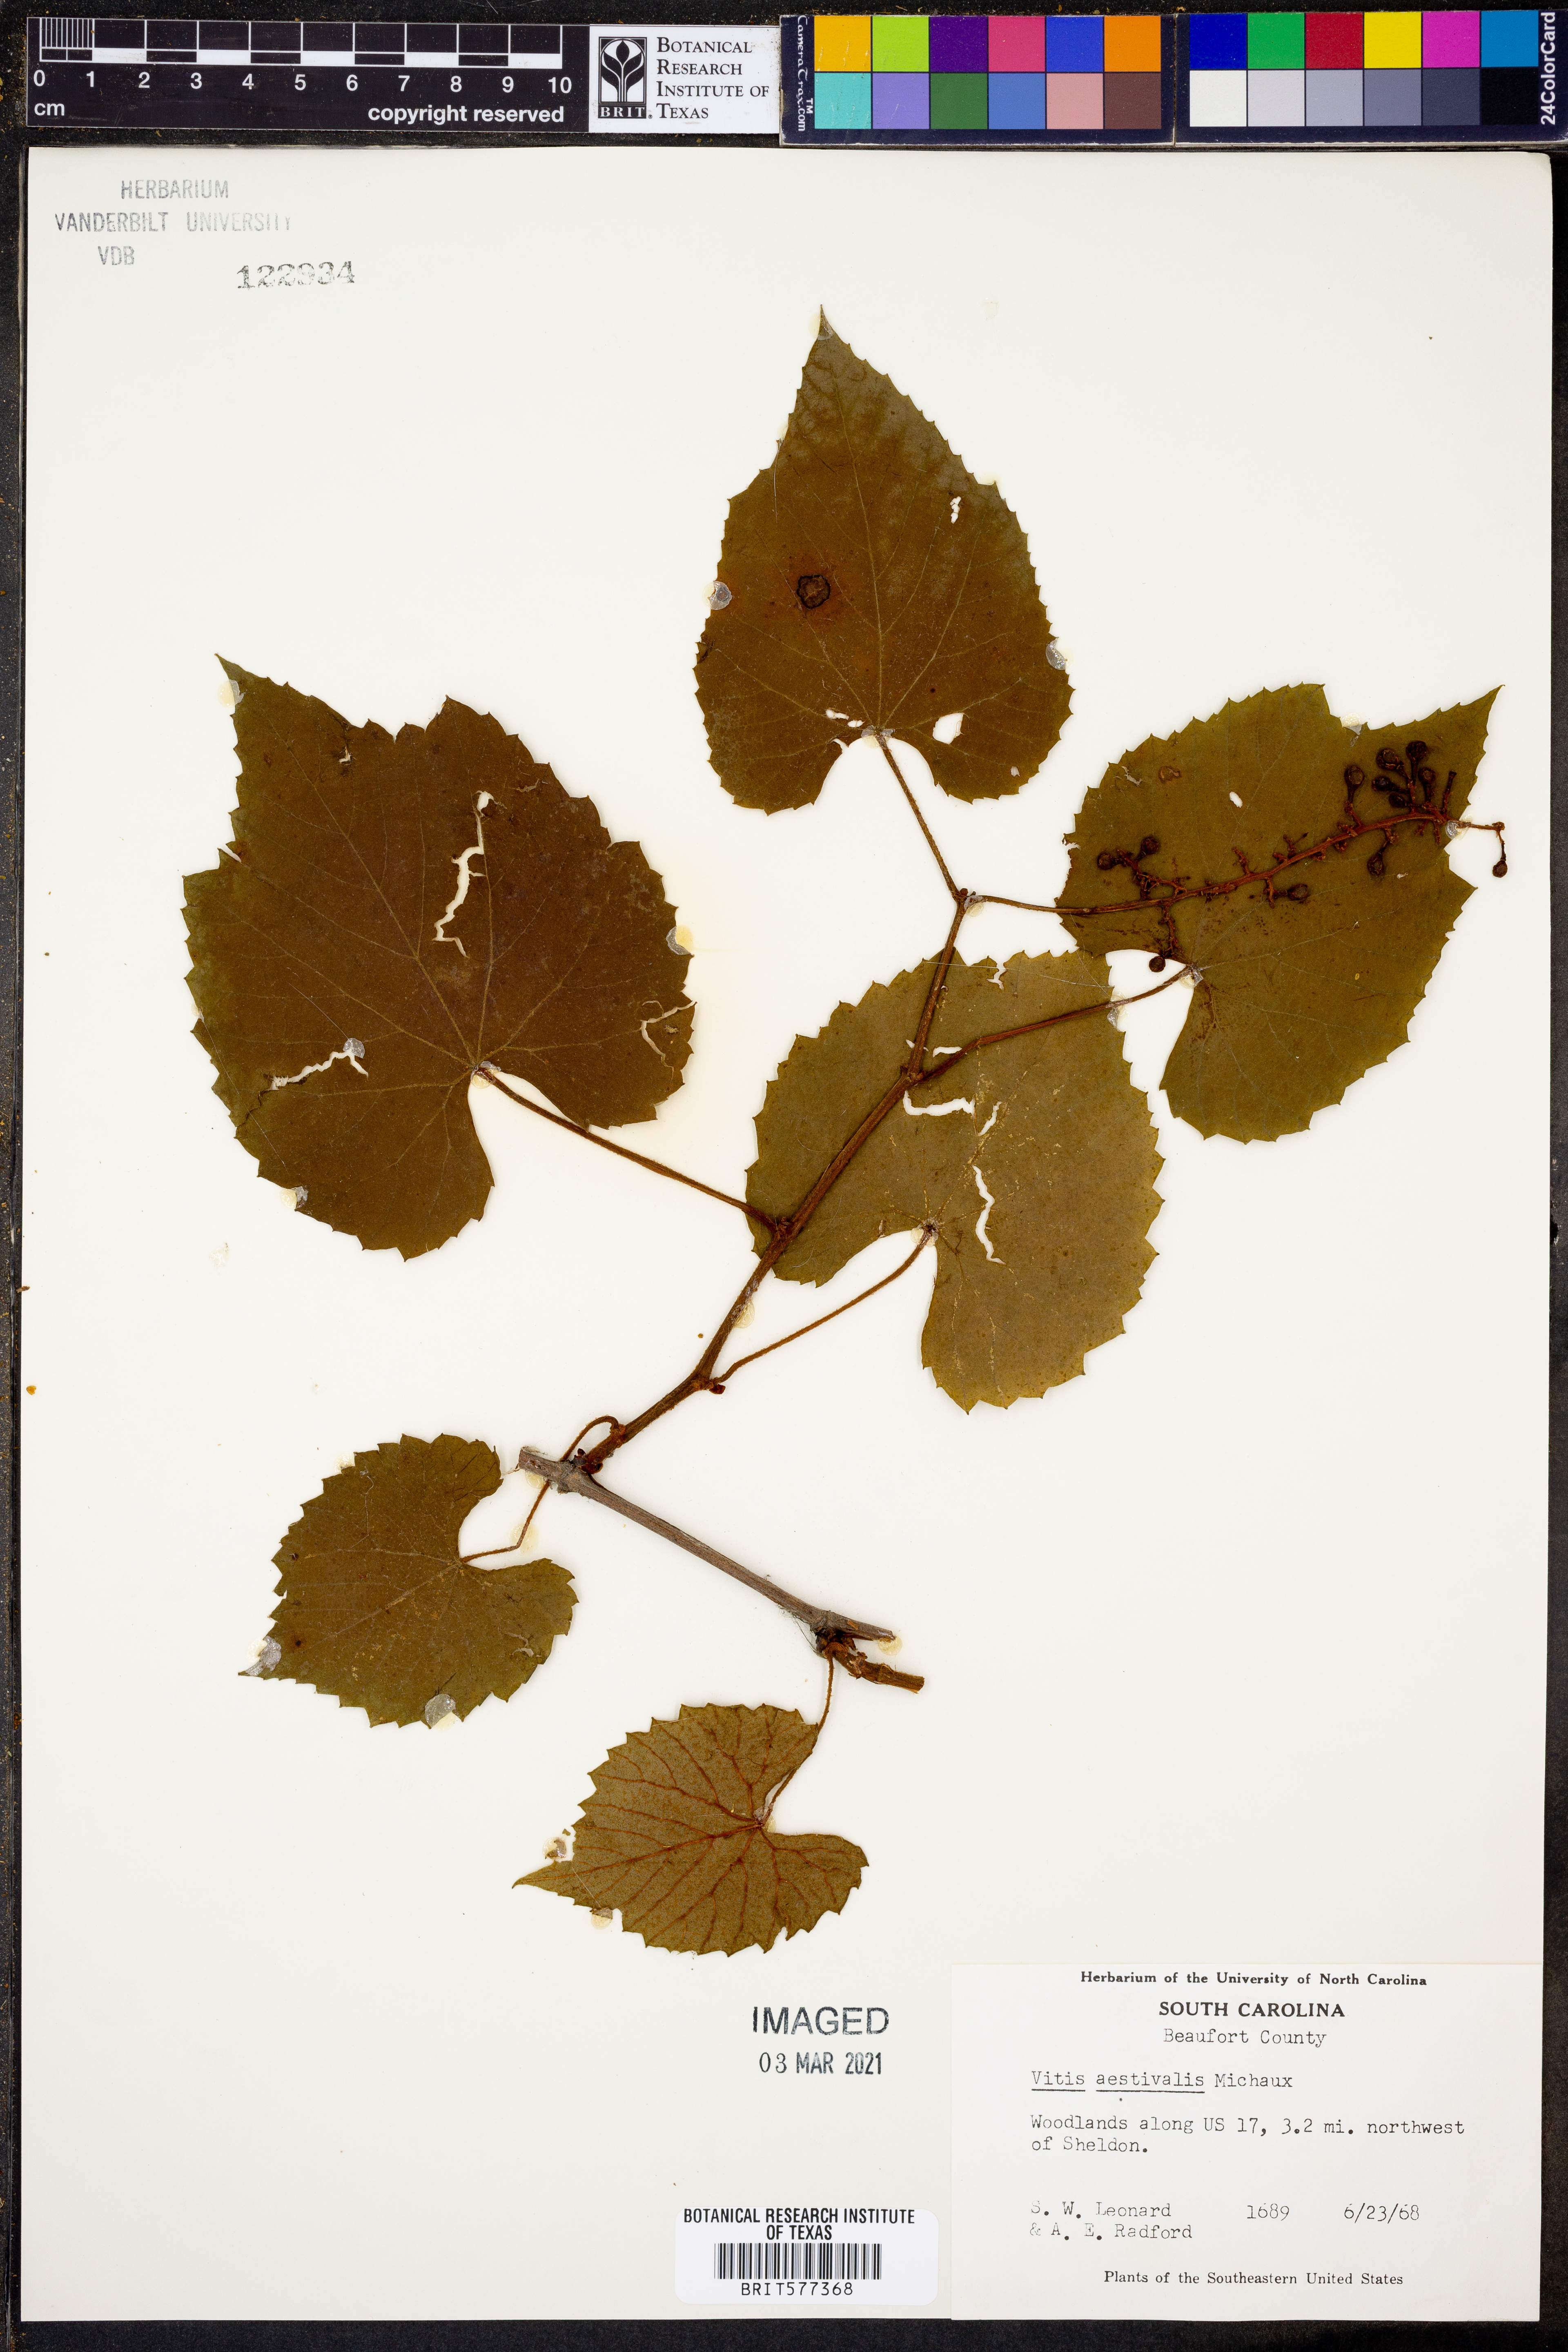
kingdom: Plantae
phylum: Tracheophyta
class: Magnoliopsida
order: Vitales
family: Vitaceae
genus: Vitis
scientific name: Vitis aestivalis
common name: Pigeon grape
